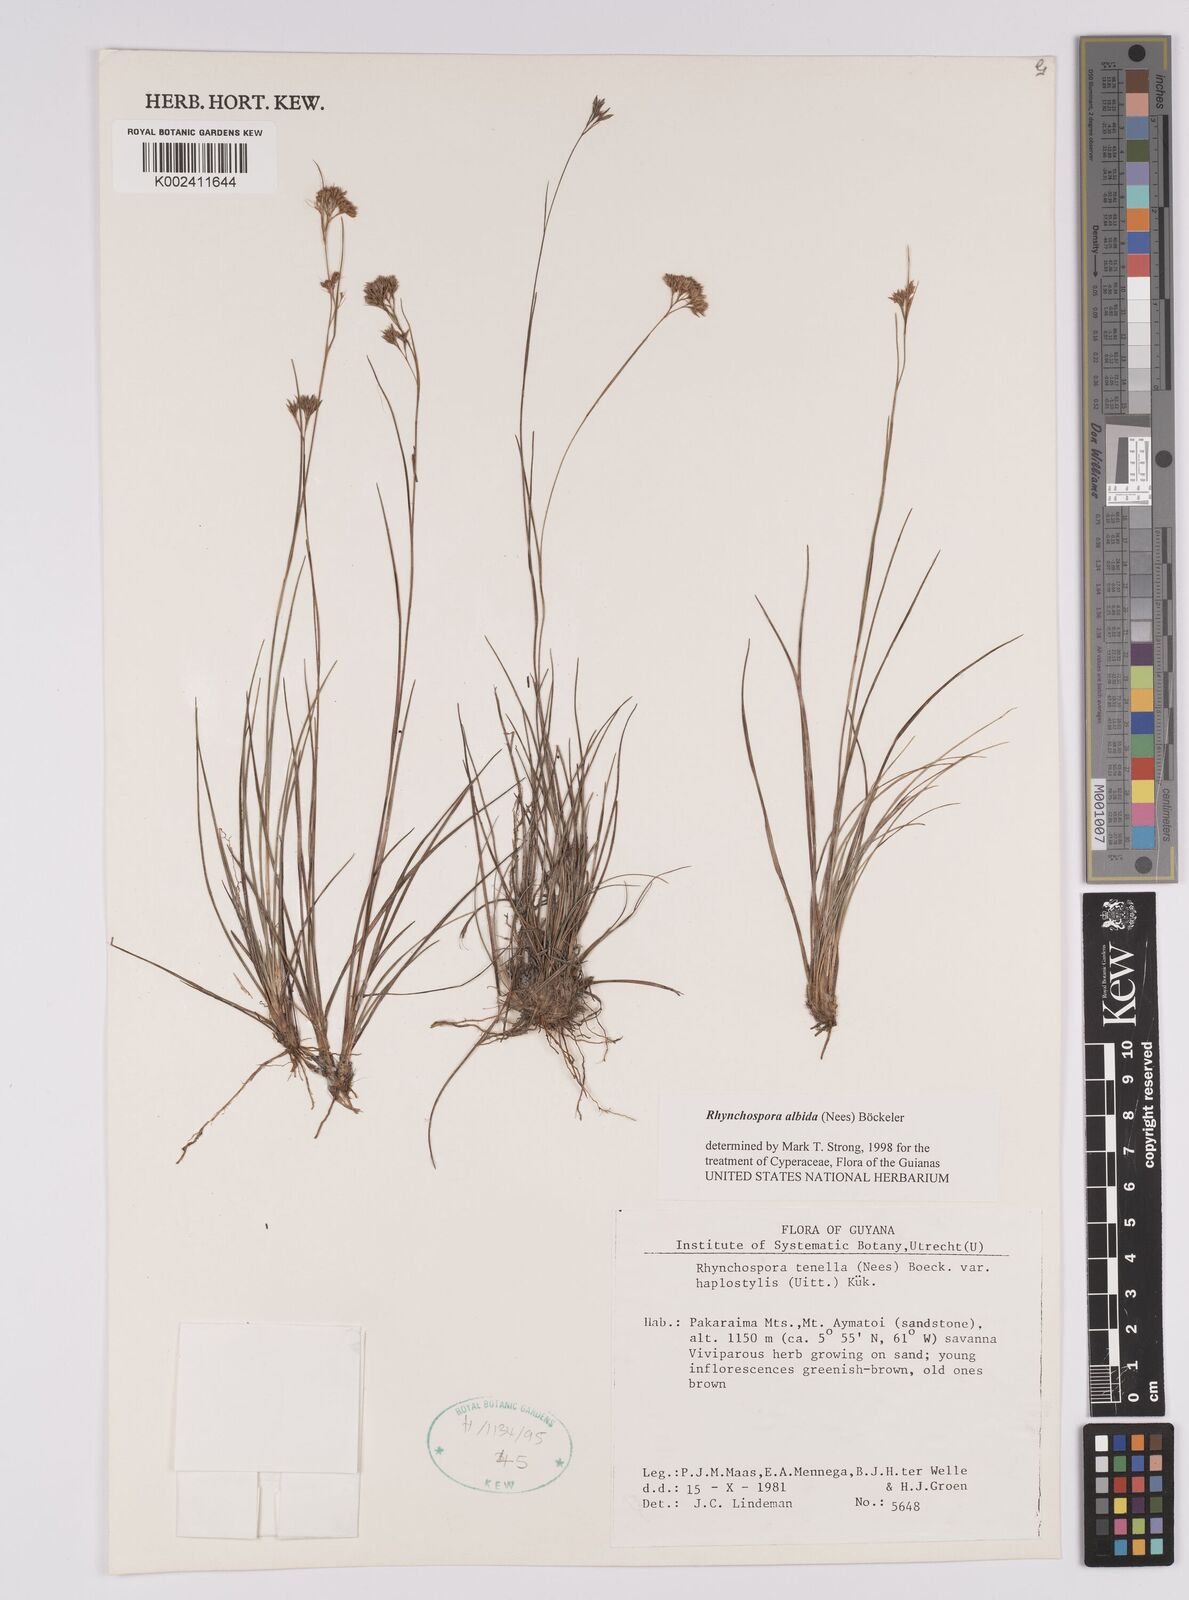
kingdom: Plantae
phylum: Tracheophyta
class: Liliopsida
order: Poales
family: Cyperaceae
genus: Rhynchospora
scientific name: Rhynchospora albida
